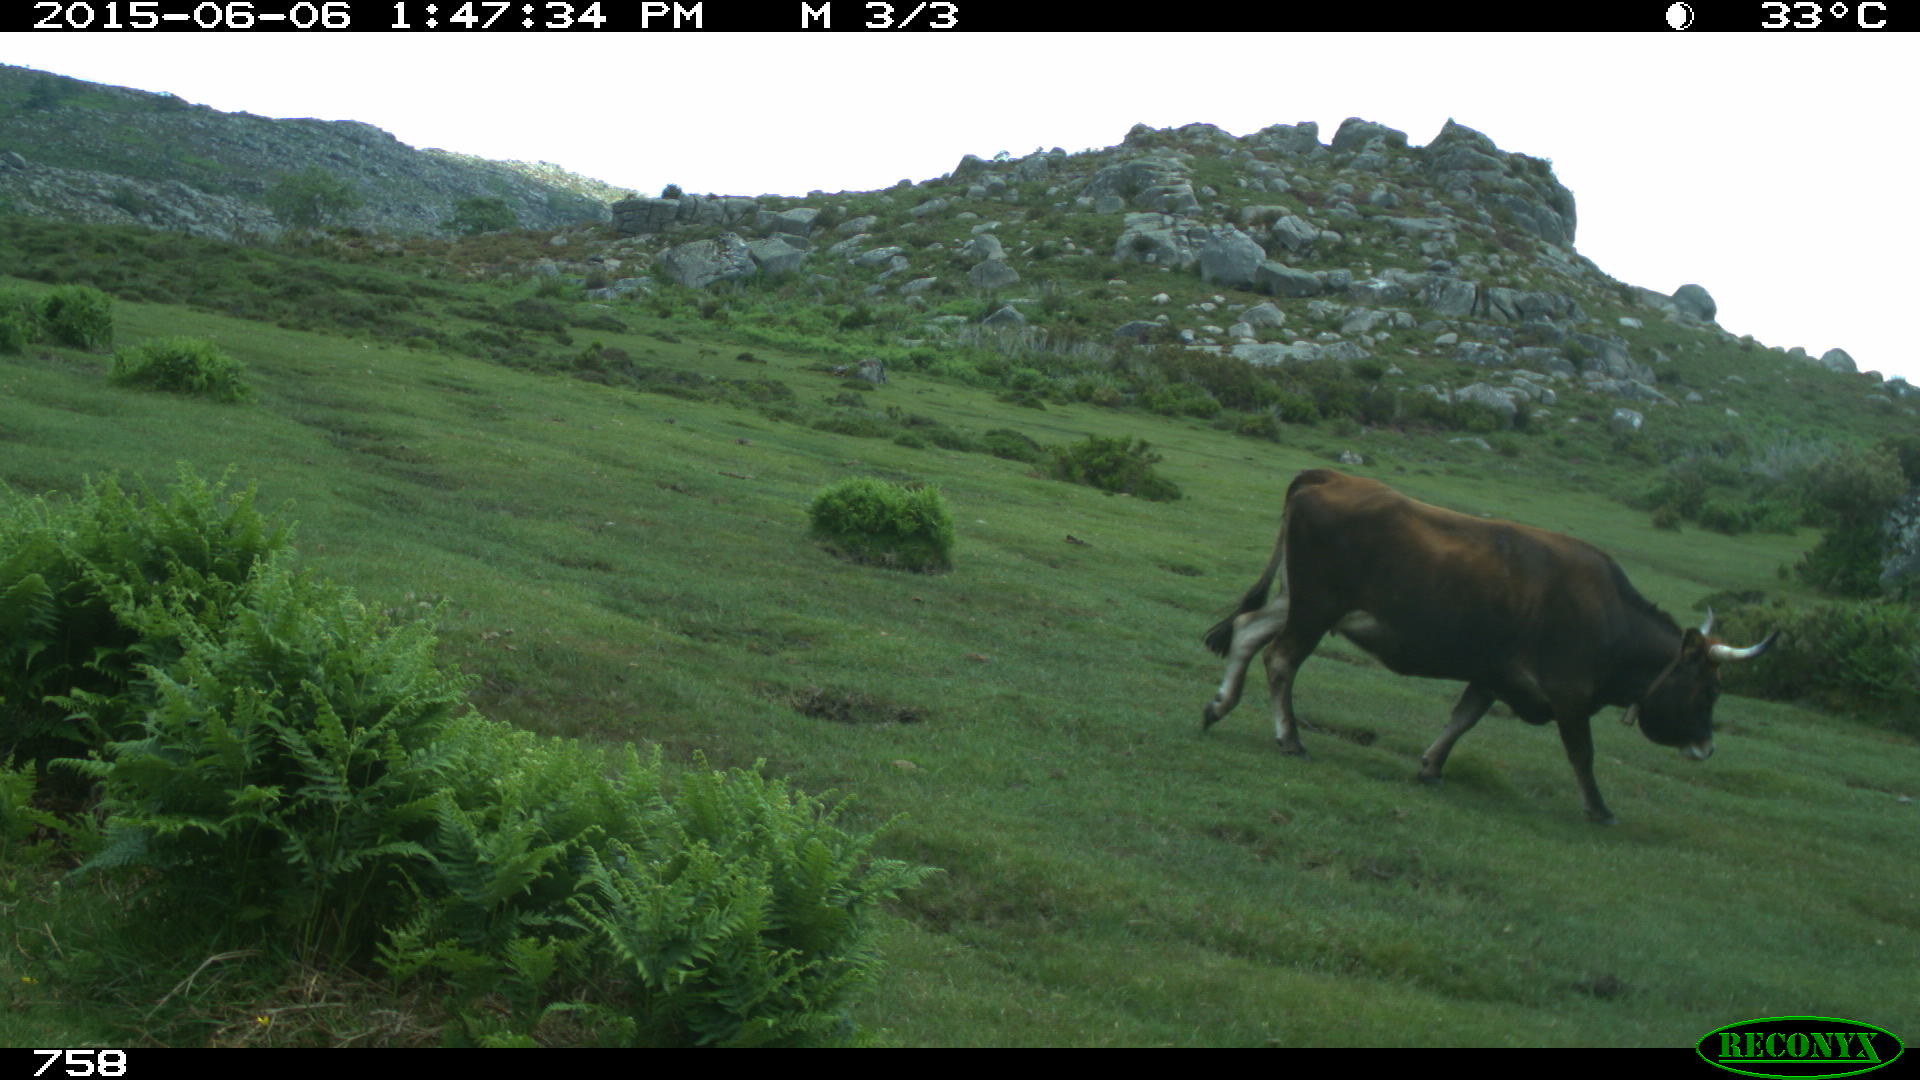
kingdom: Animalia
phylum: Chordata
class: Mammalia
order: Artiodactyla
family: Bovidae
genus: Bos
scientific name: Bos taurus
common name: Domesticated cattle
